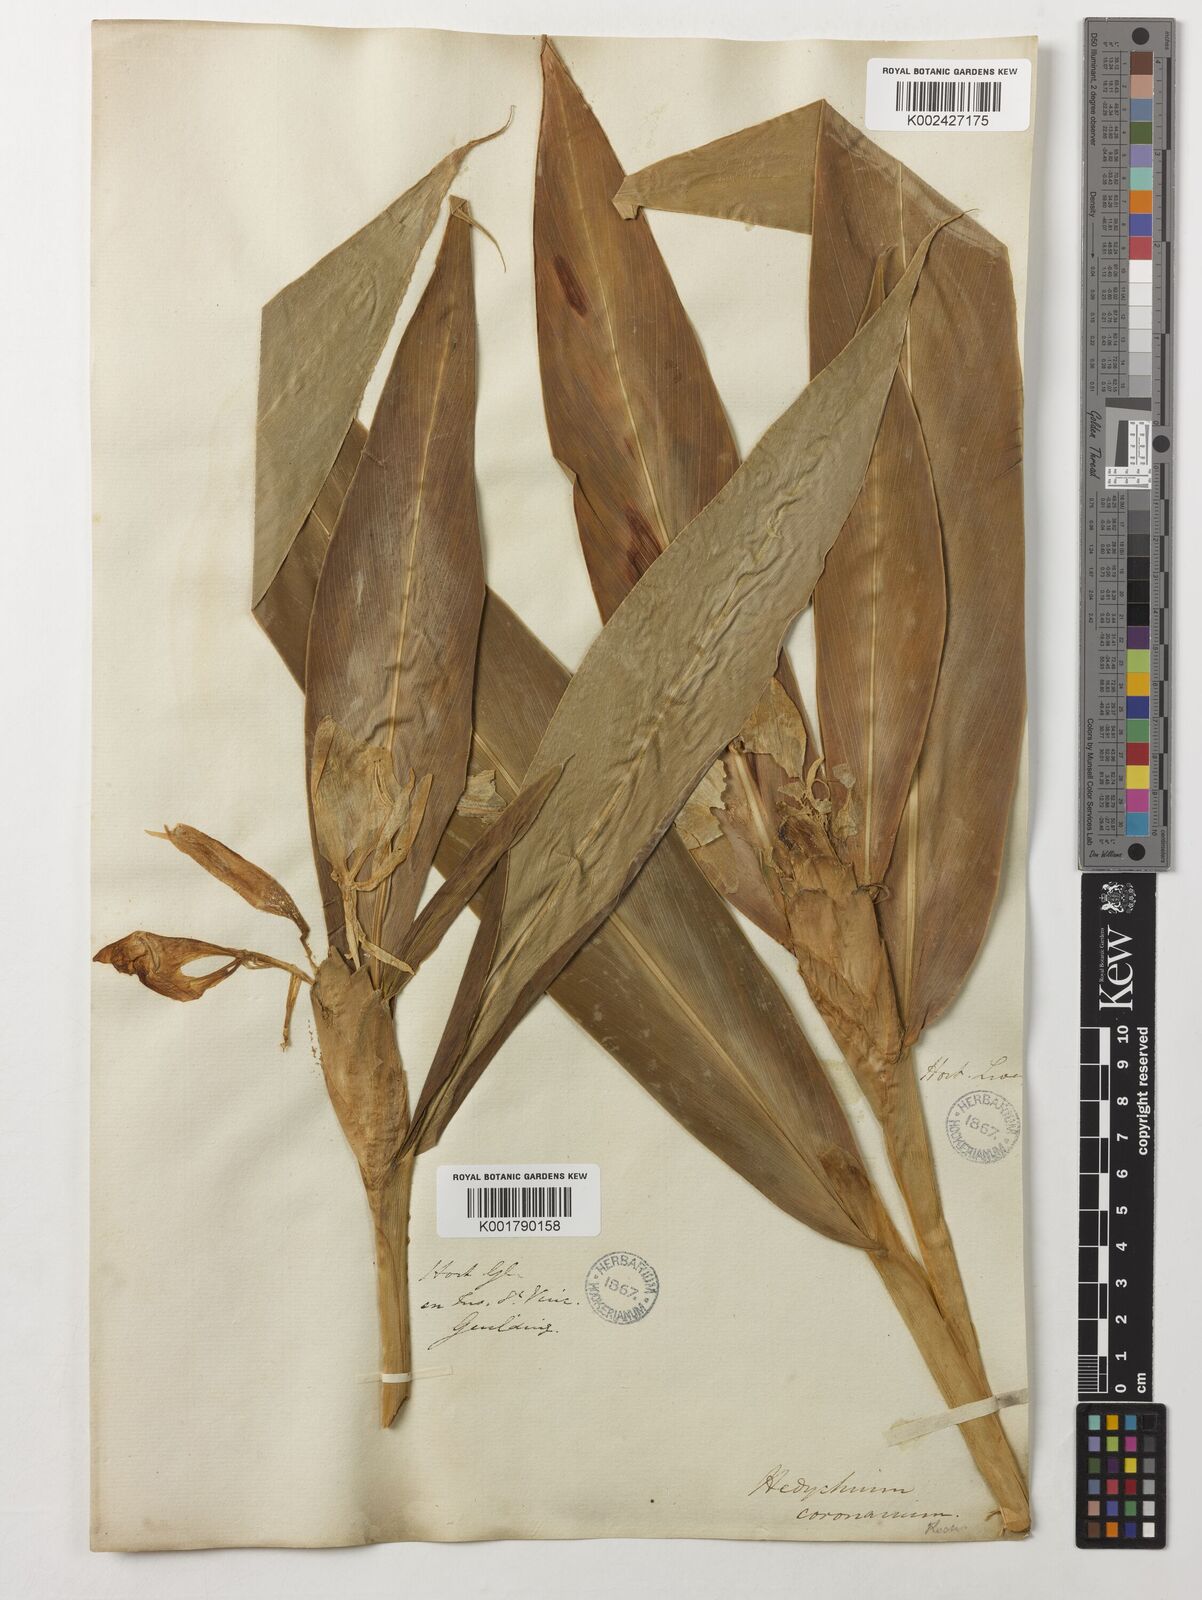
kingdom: Plantae
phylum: Tracheophyta
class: Liliopsida
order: Zingiberales
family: Zingiberaceae
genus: Hedychium
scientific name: Hedychium coronarium
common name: White garland-lily
